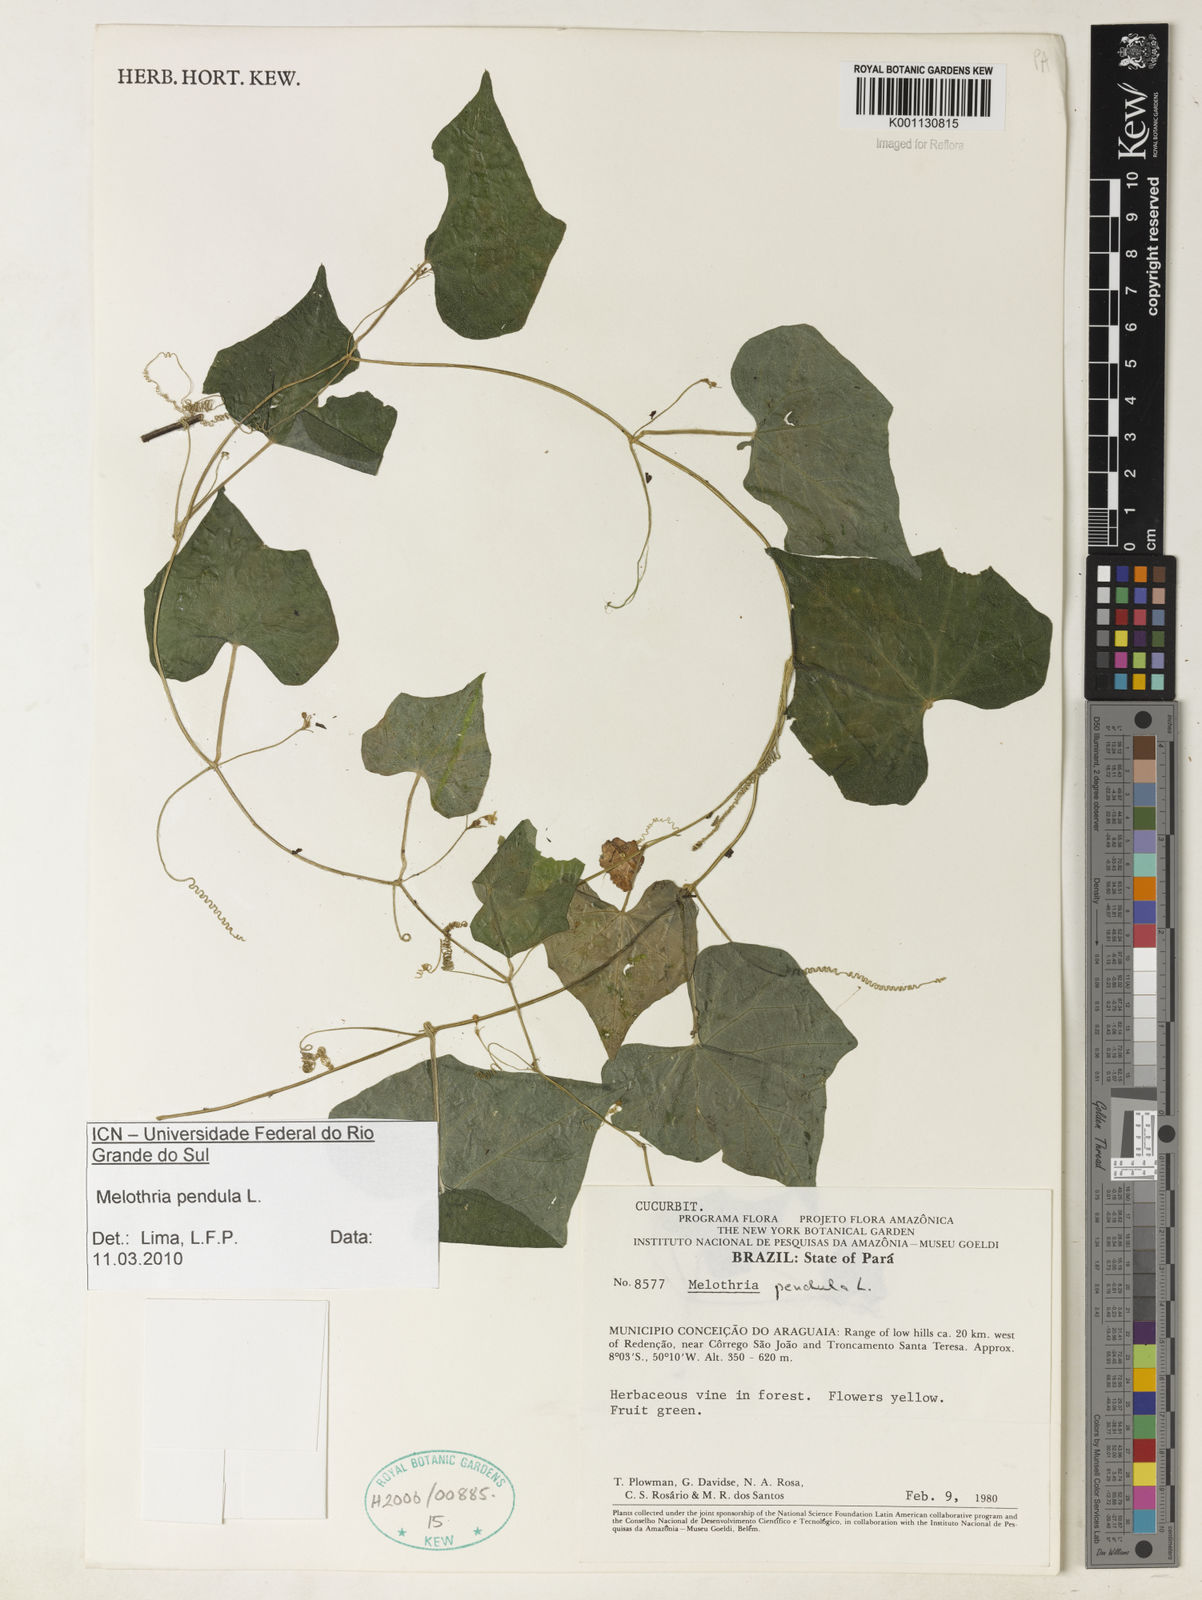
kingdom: Plantae
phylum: Tracheophyta
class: Magnoliopsida
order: Cucurbitales
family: Cucurbitaceae
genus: Melothria
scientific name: Melothria pendula
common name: Creeping-cucumber
